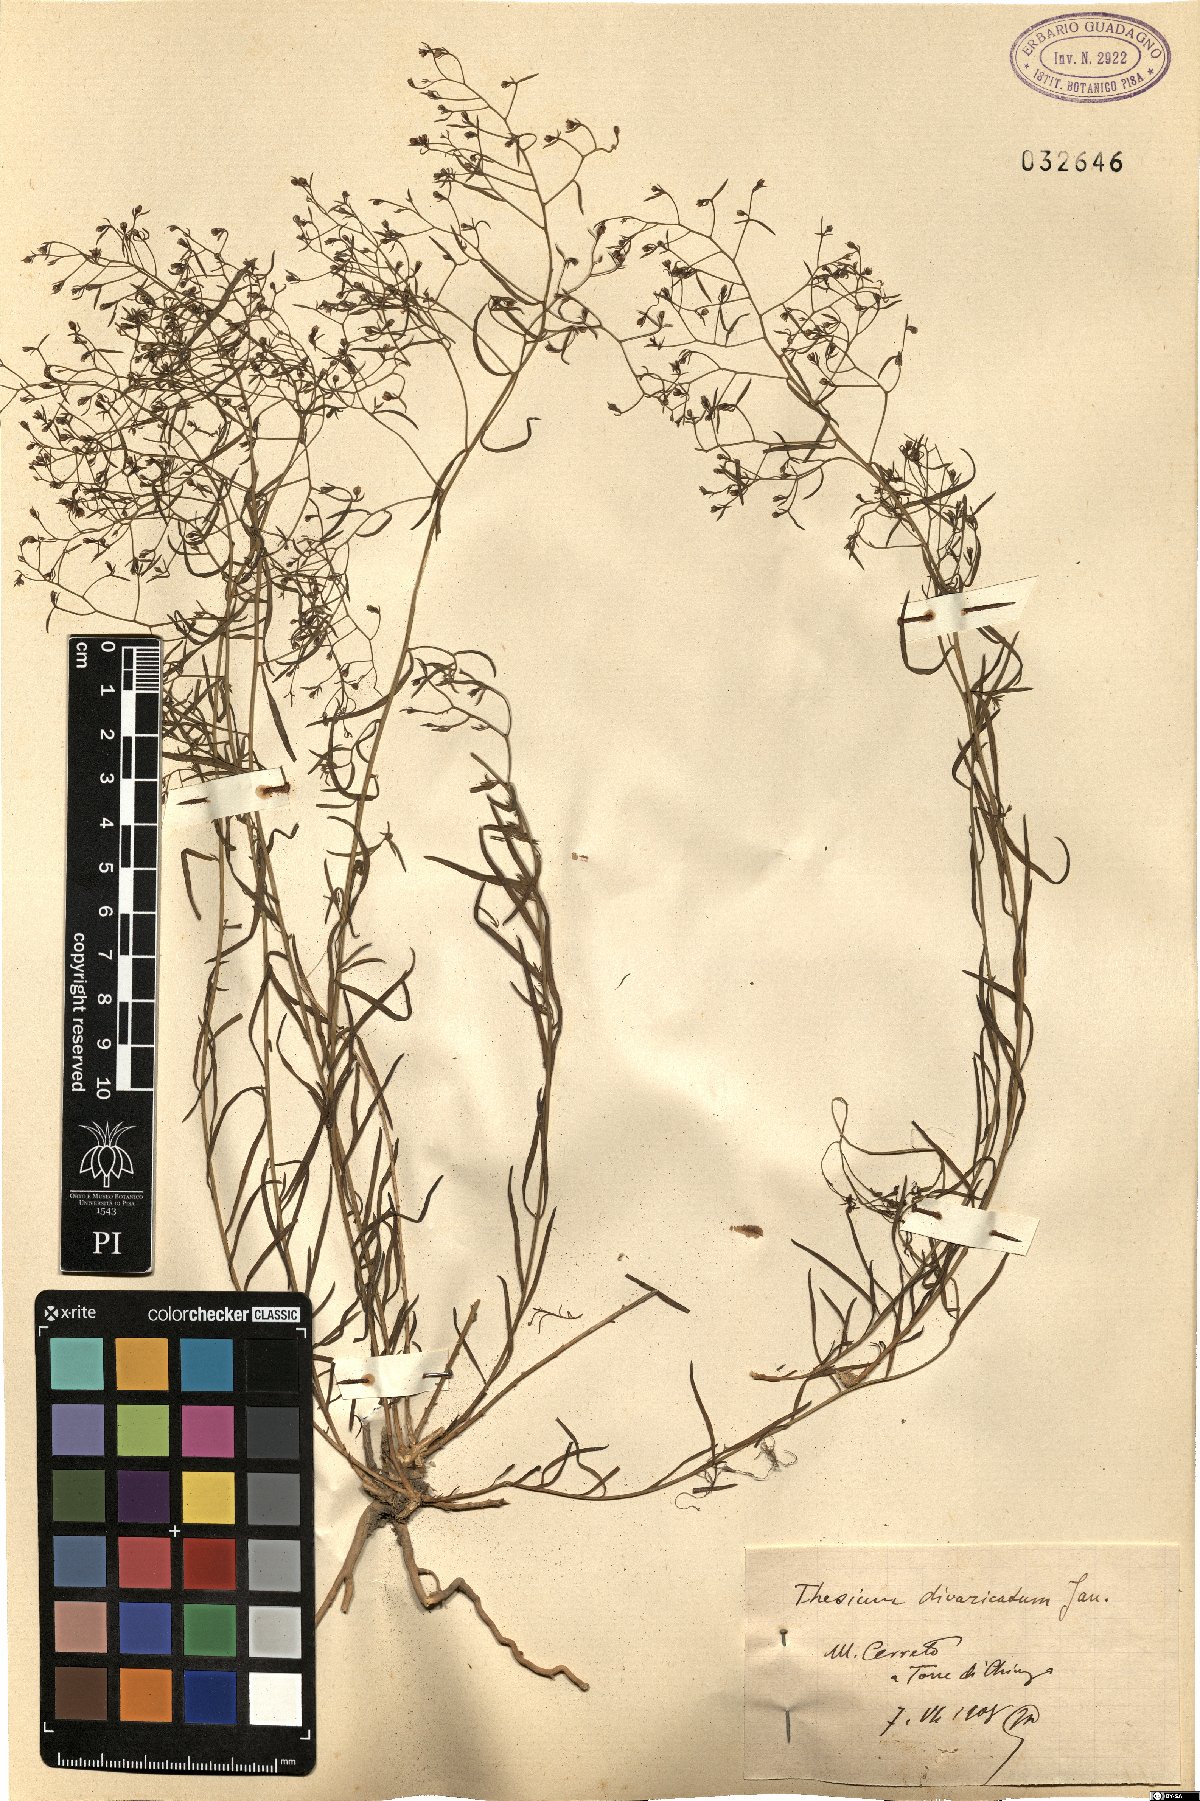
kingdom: Plantae
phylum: Tracheophyta
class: Magnoliopsida
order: Santalales
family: Thesiaceae
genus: Thesium
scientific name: Thesium divaricatum
